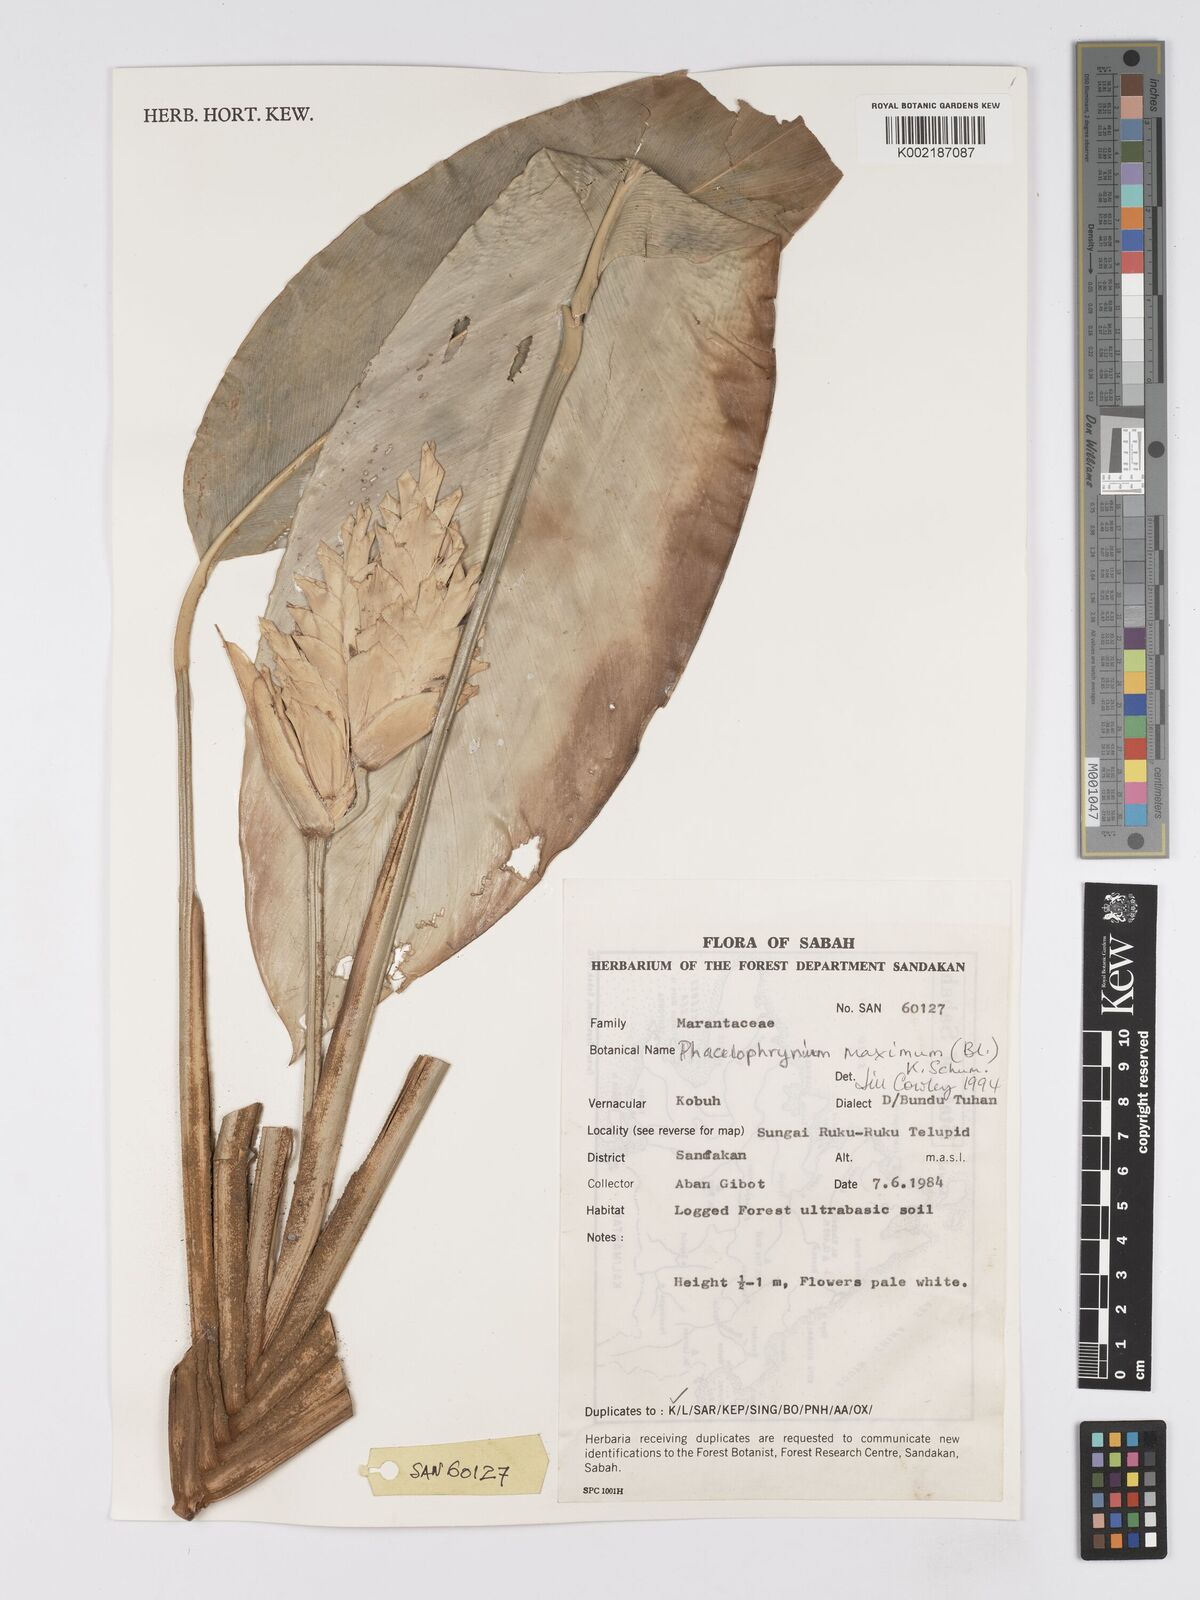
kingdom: Plantae
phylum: Tracheophyta
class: Liliopsida
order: Zingiberales
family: Marantaceae
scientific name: Marantaceae
